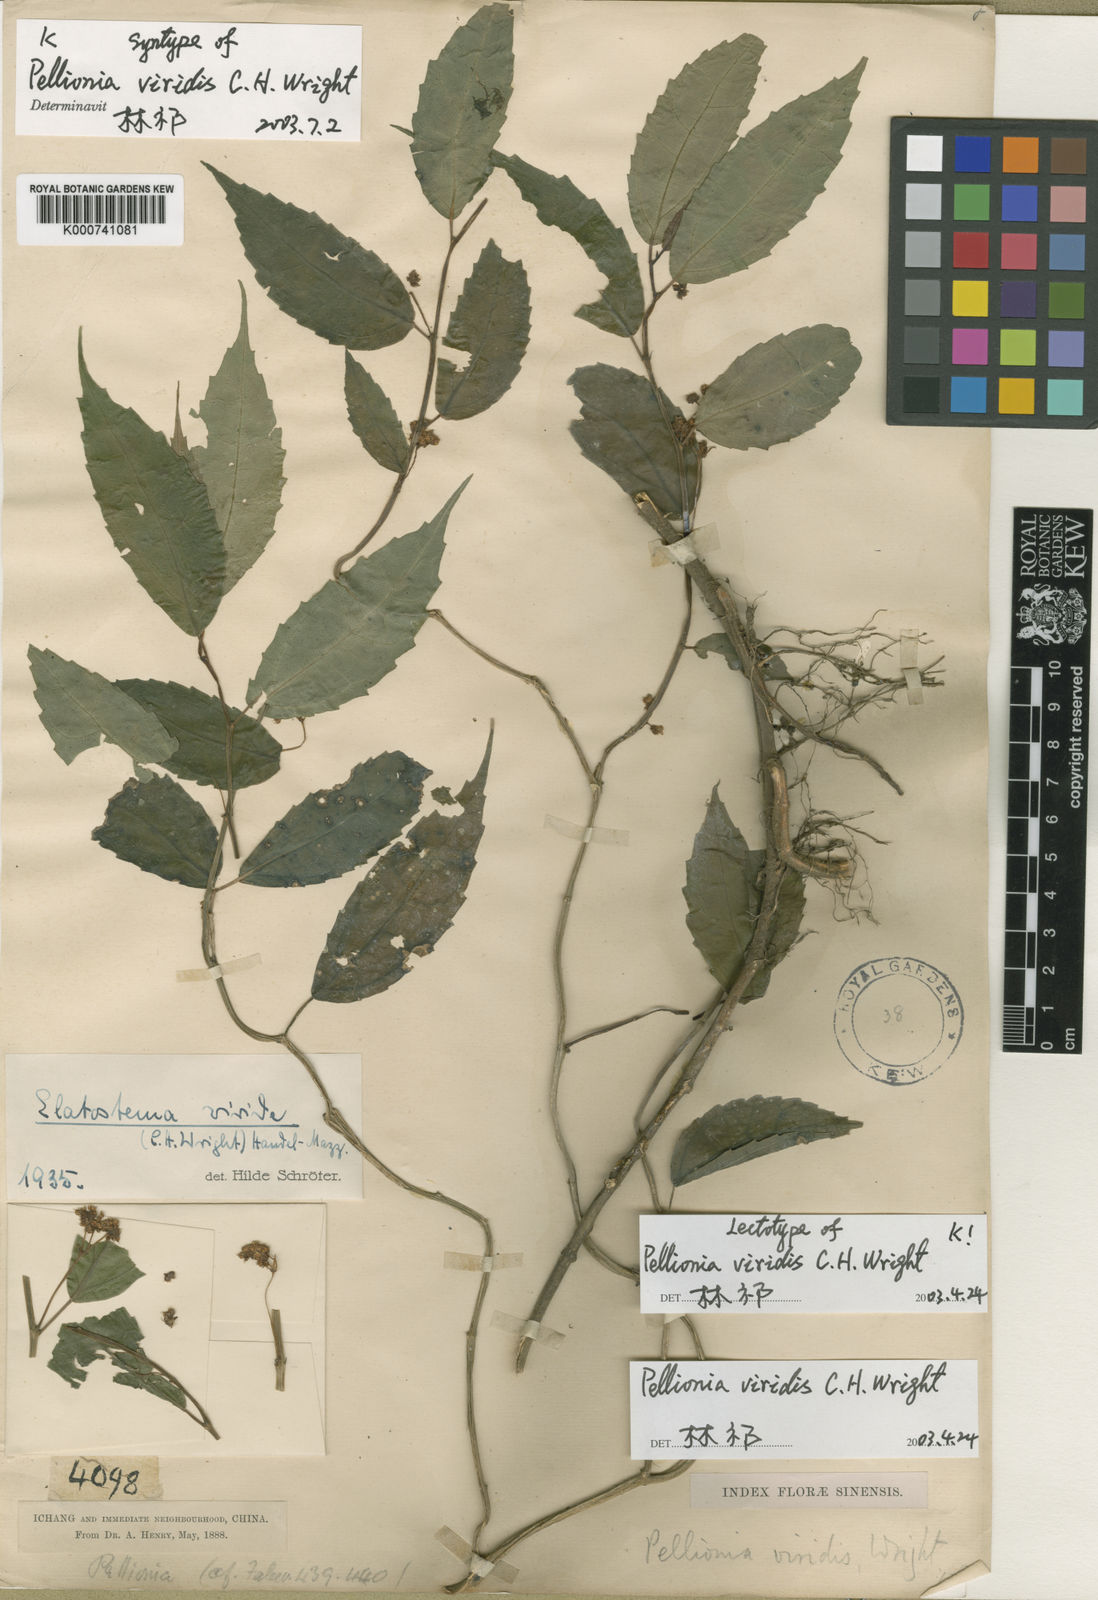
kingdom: Plantae
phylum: Tracheophyta
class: Magnoliopsida
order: Rosales
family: Urticaceae
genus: Elatostema
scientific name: Elatostema viride
